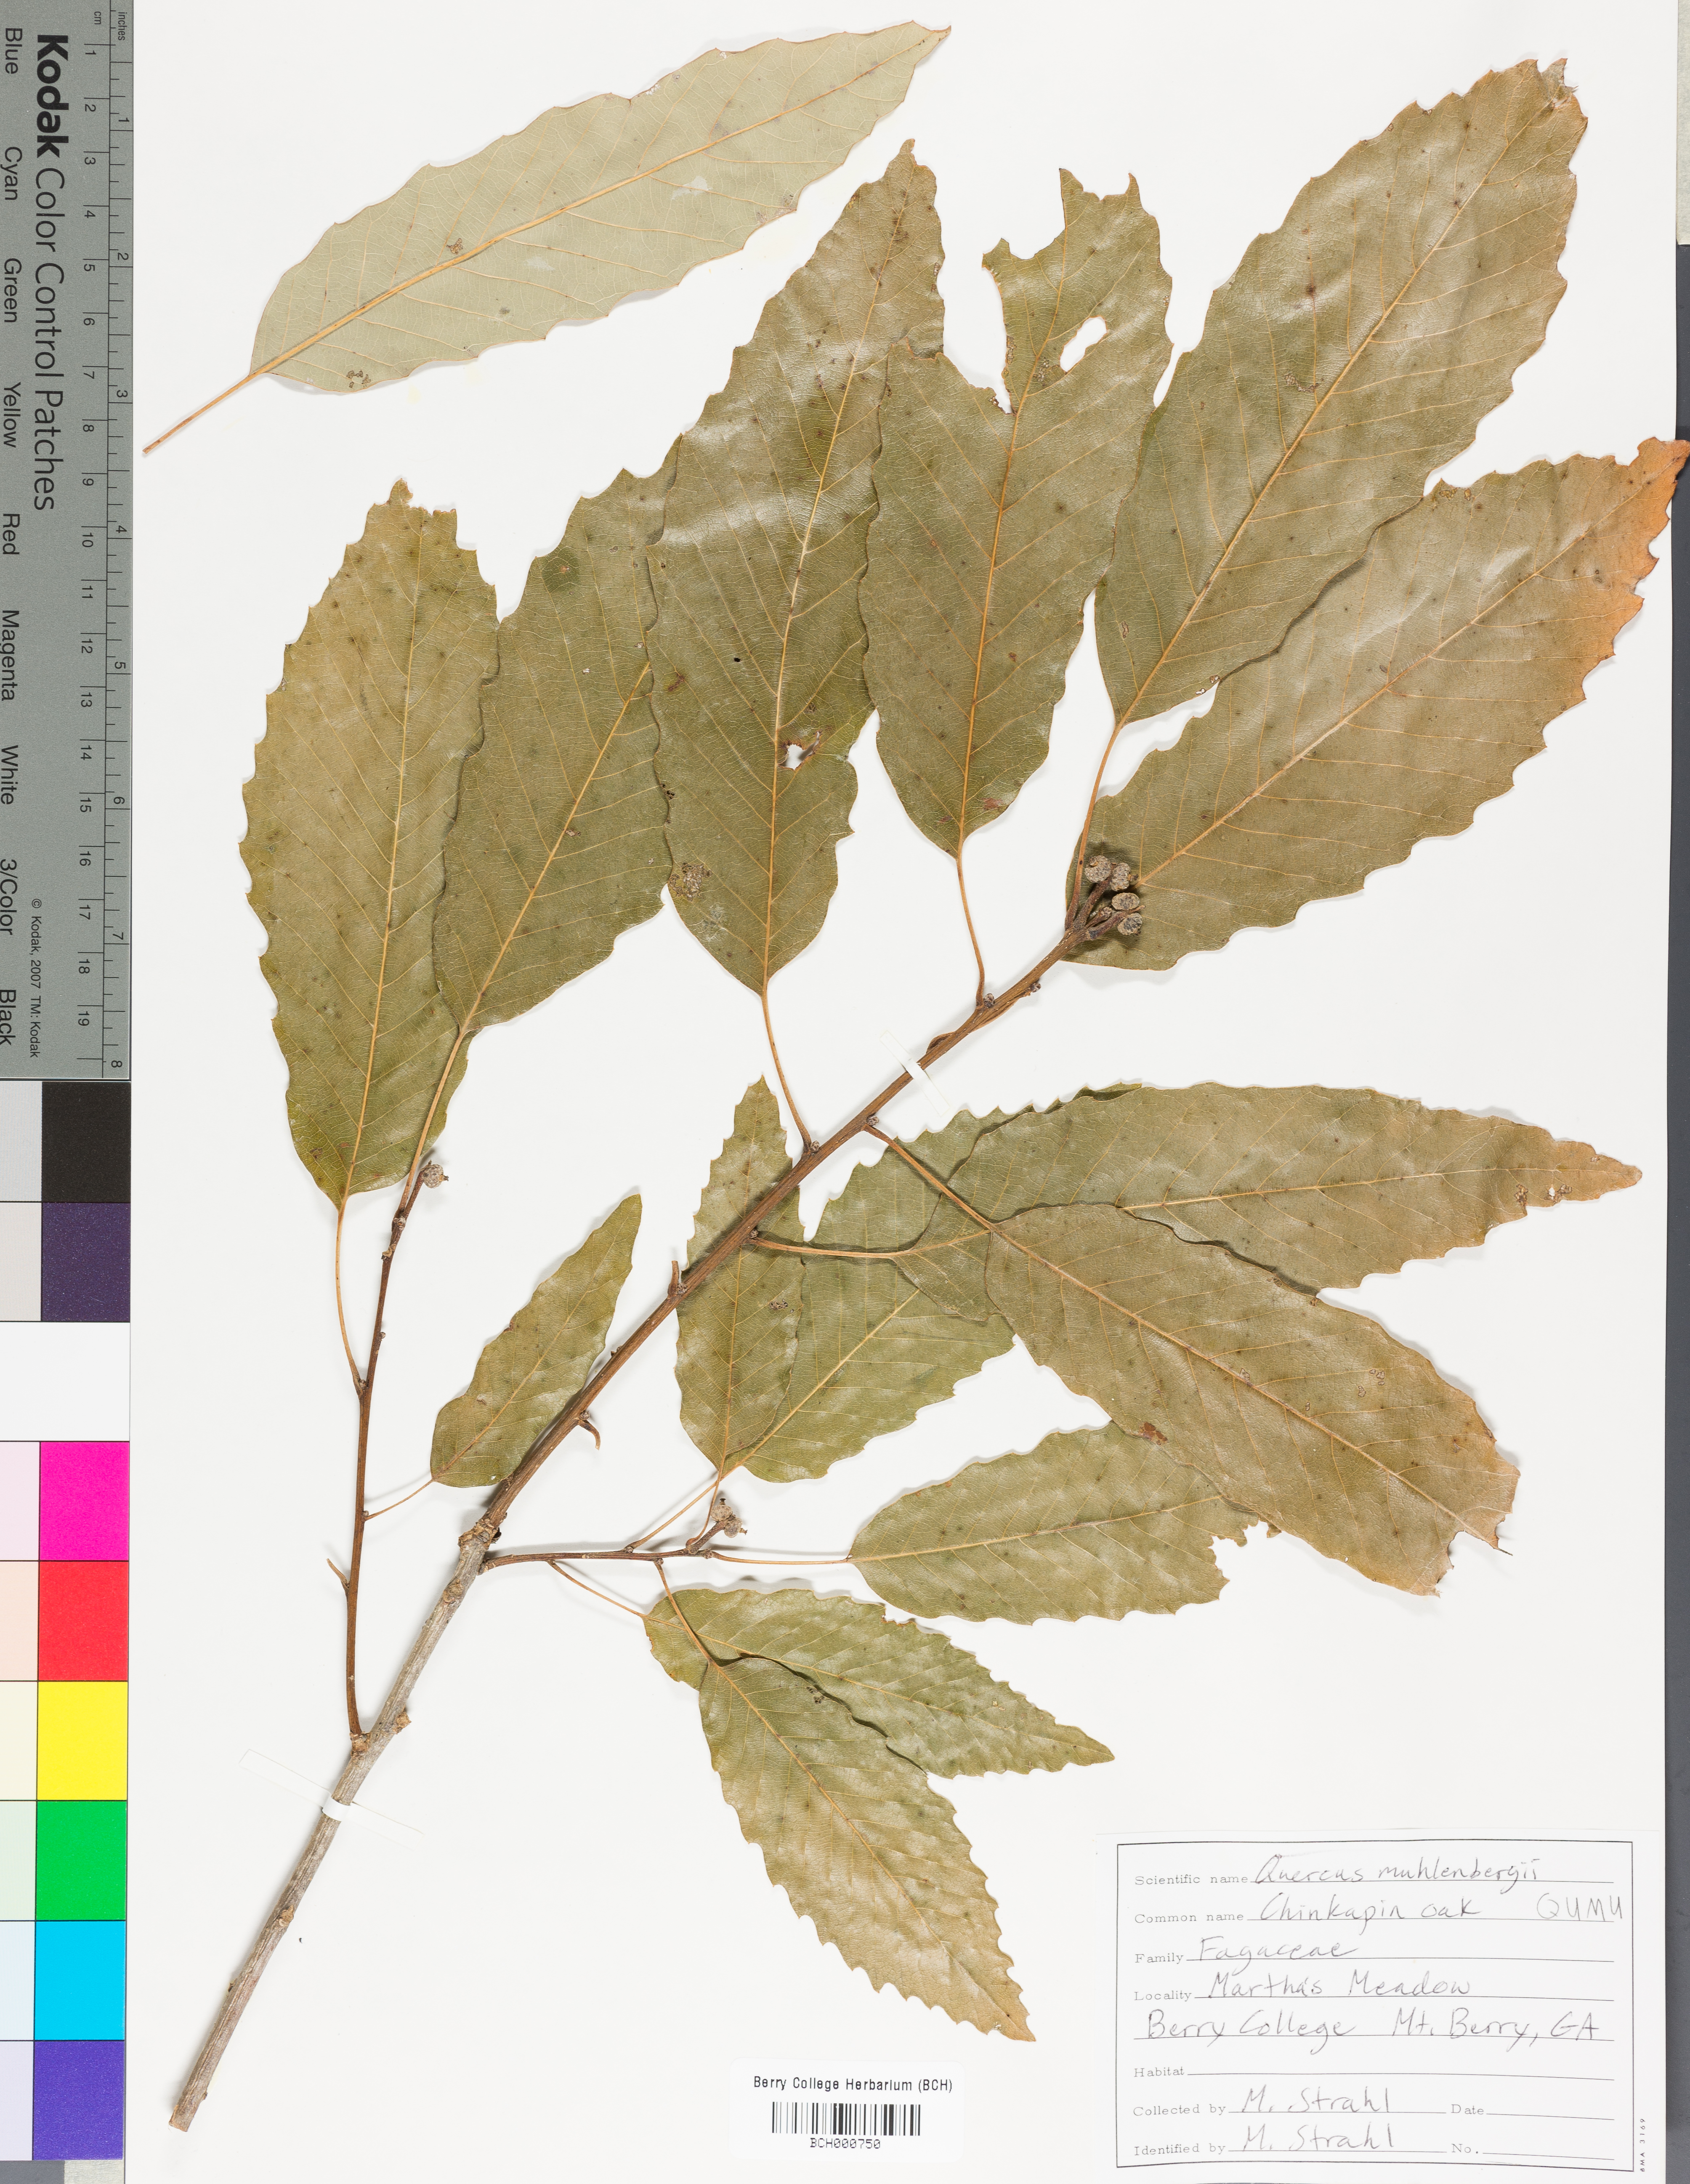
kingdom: Plantae
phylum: Tracheophyta
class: Magnoliopsida
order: Fagales
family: Fagaceae
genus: Quercus
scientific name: Quercus muehlenbergii
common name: Chinkapin oak
